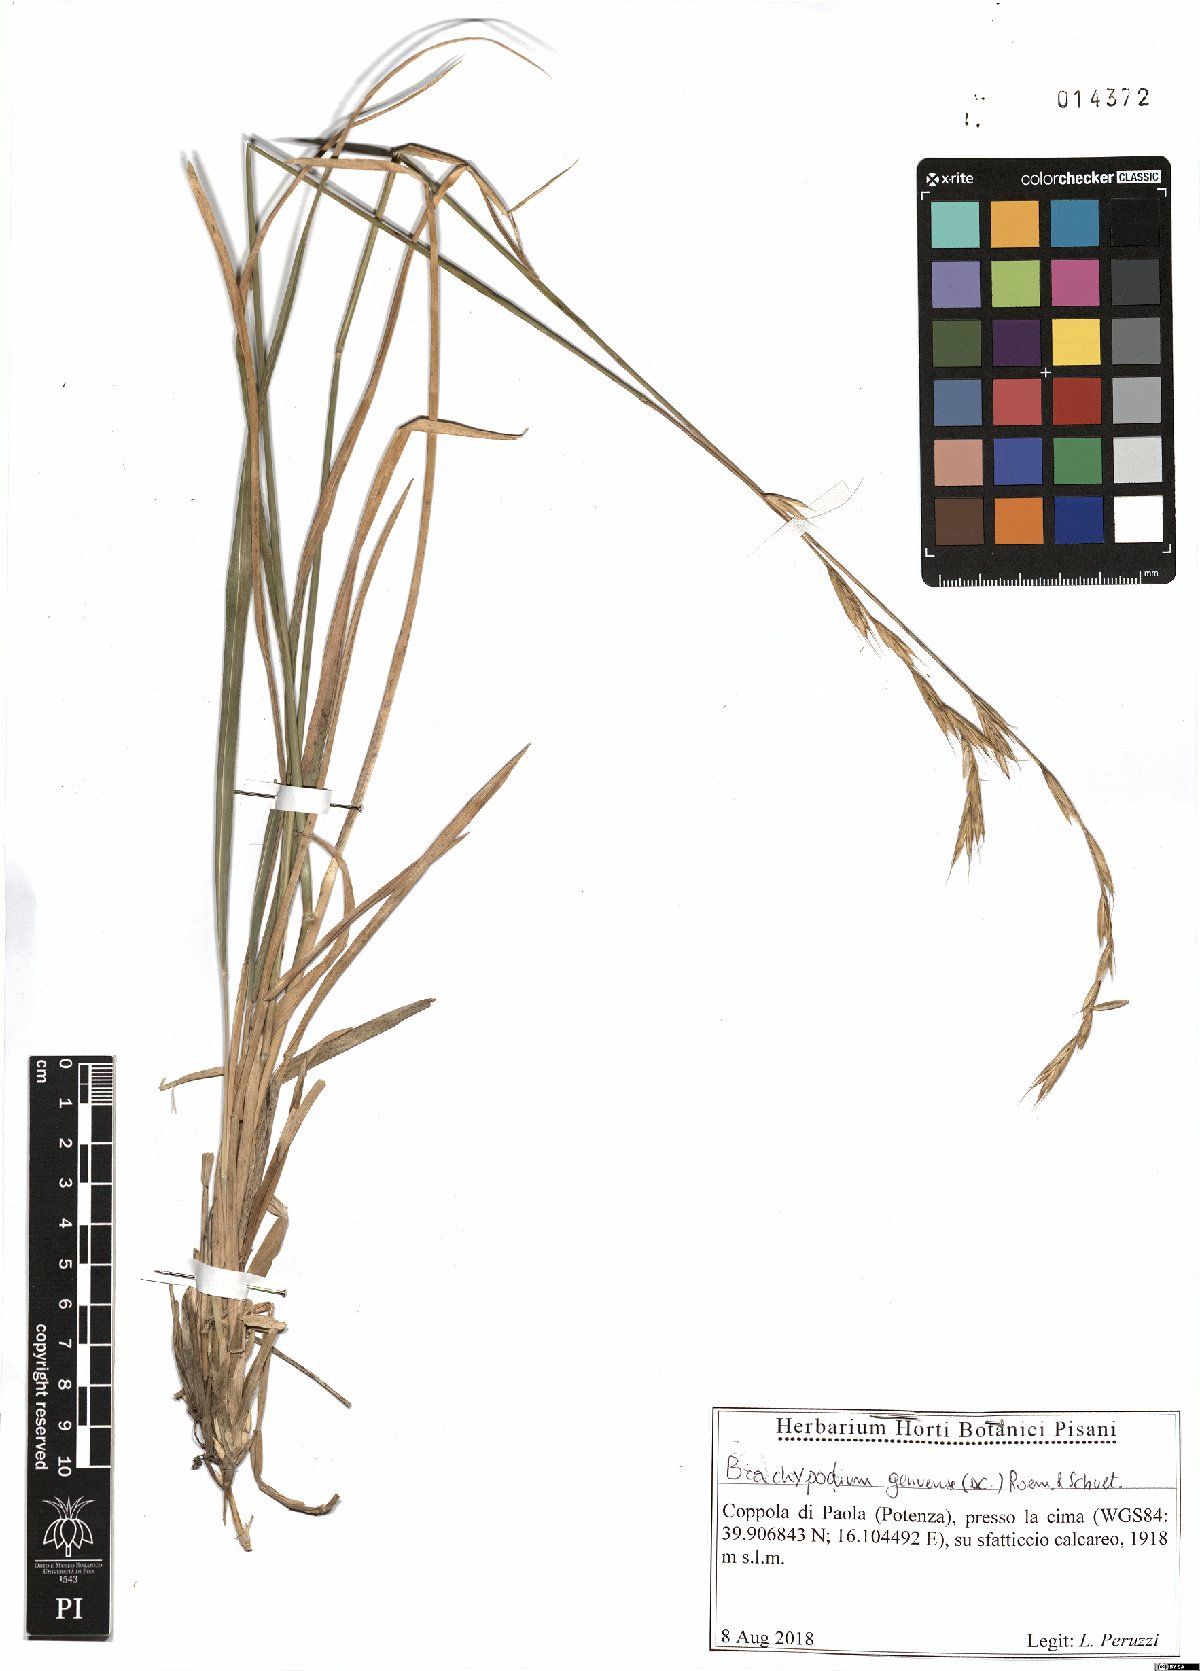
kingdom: Plantae
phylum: Tracheophyta
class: Liliopsida
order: Poales
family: Poaceae
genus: Brachypodium
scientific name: Brachypodium pinnatum
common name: Tor grass
